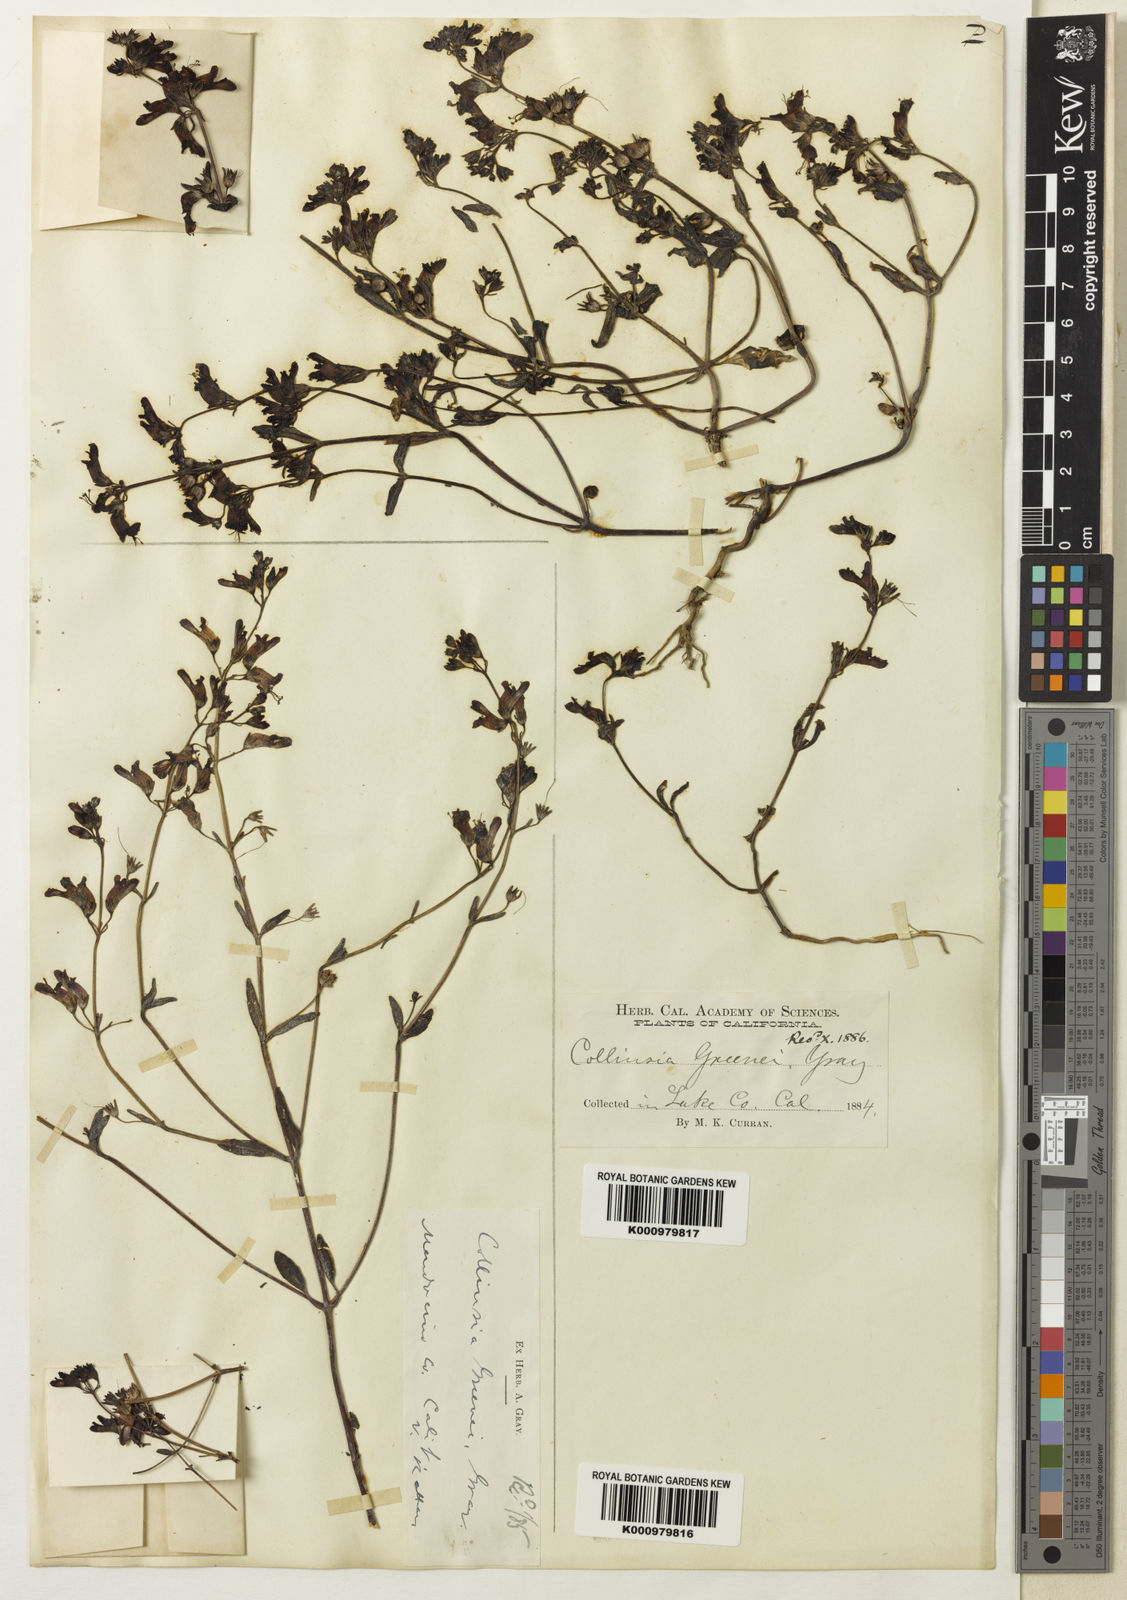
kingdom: Plantae
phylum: Tracheophyta
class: Magnoliopsida
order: Lamiales
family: Plantaginaceae
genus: Collinsia
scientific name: Collinsia greenei
